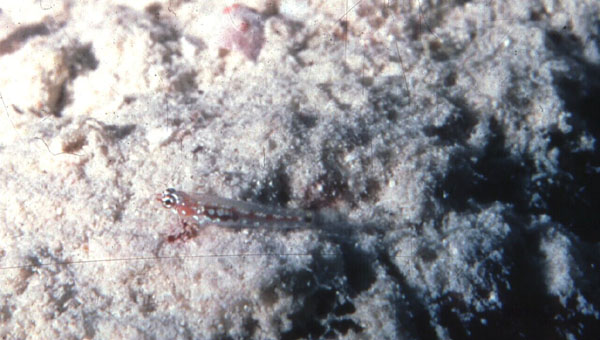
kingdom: Animalia
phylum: Chordata
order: Perciformes
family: Gobiidae
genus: Eviota
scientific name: Eviota zebrina
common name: Five-bar pygmy-goby
